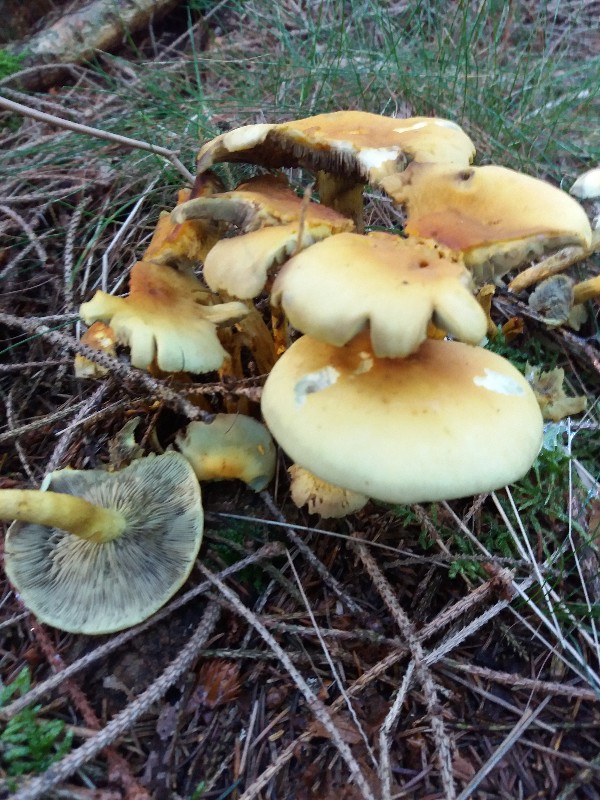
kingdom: Fungi
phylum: Basidiomycota
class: Agaricomycetes
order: Agaricales
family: Strophariaceae
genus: Hypholoma
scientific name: Hypholoma fasciculare
